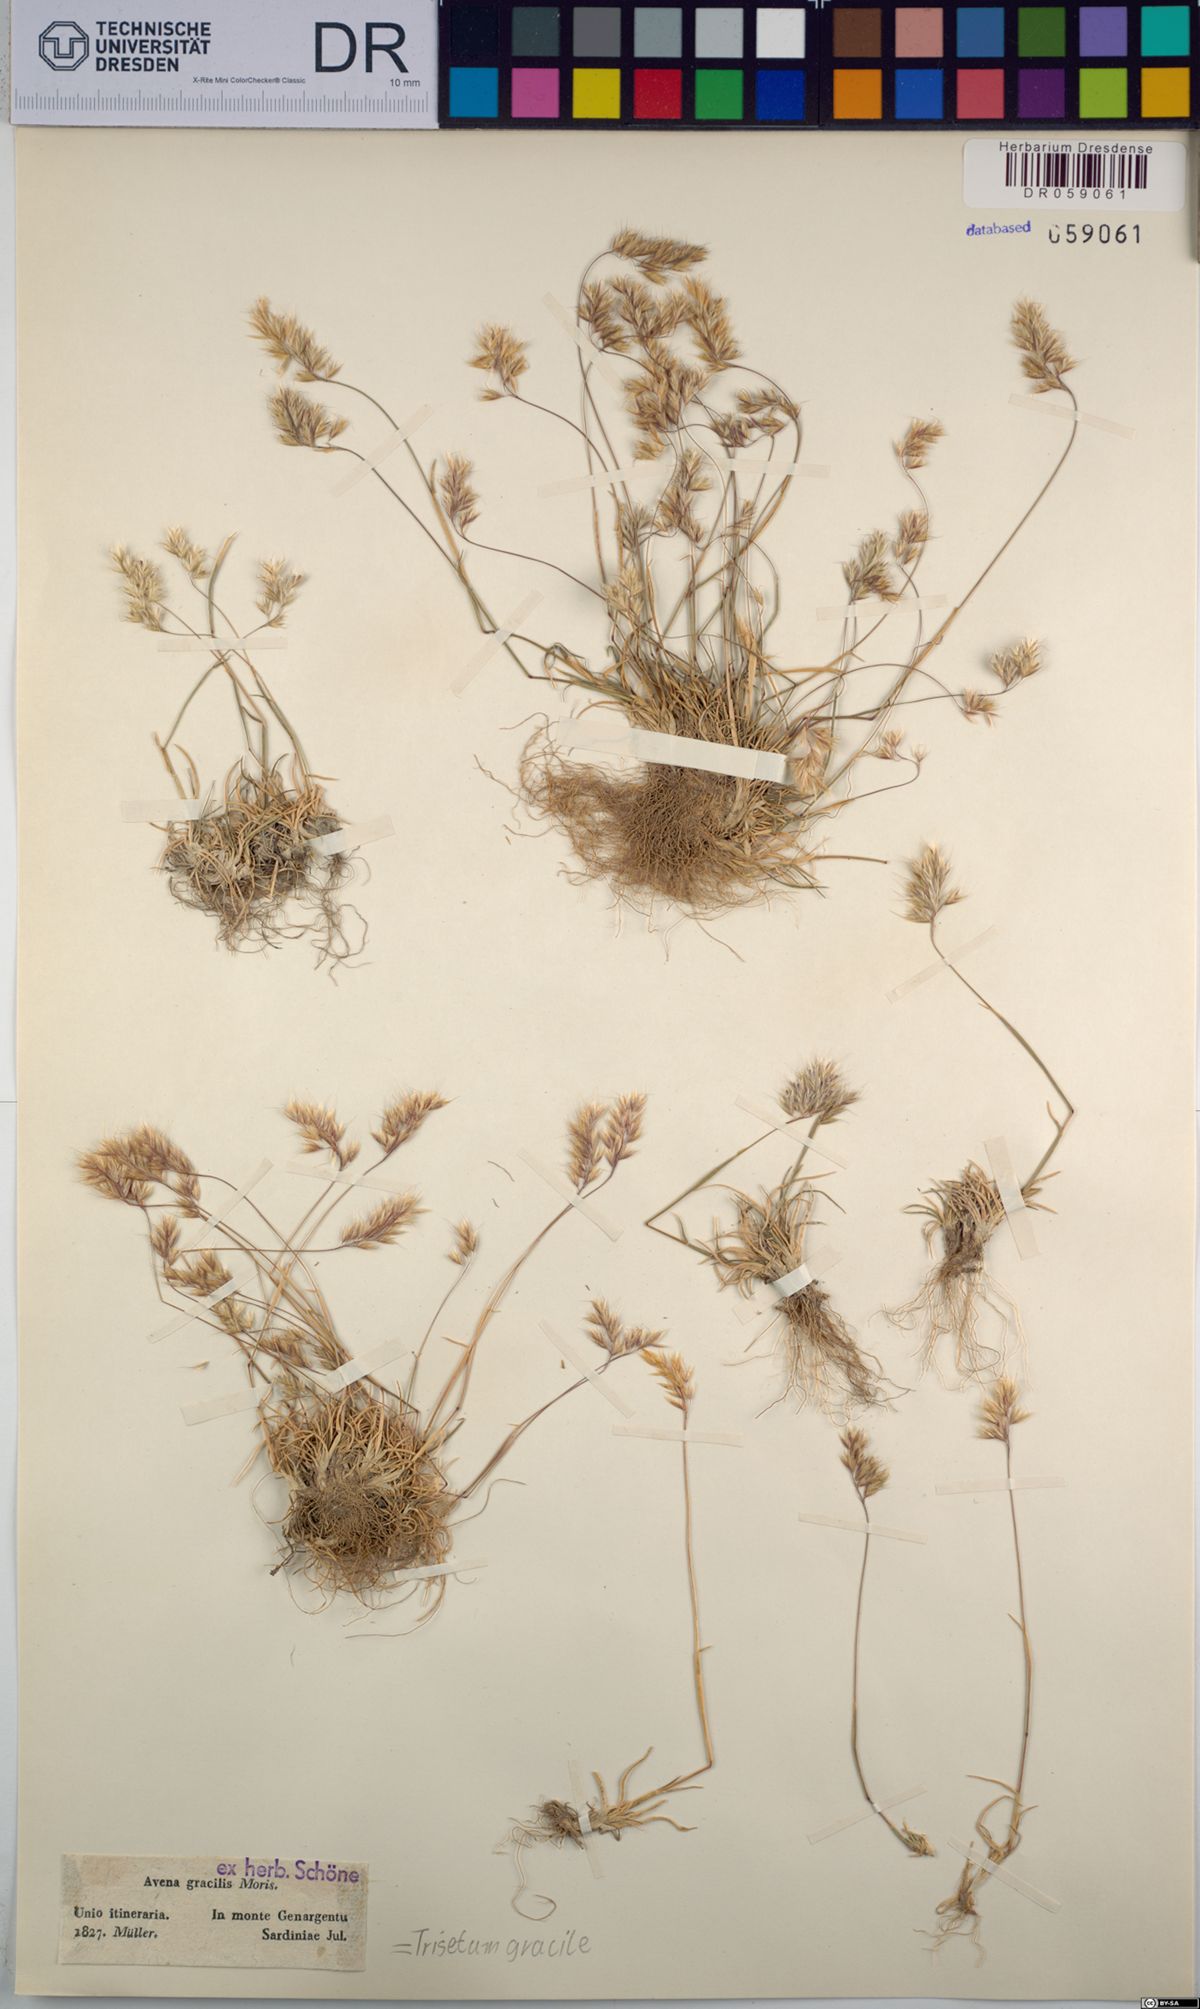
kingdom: Plantae
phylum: Tracheophyta
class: Liliopsida
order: Poales
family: Poaceae
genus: Trisetum
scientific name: Trisetum gracile
